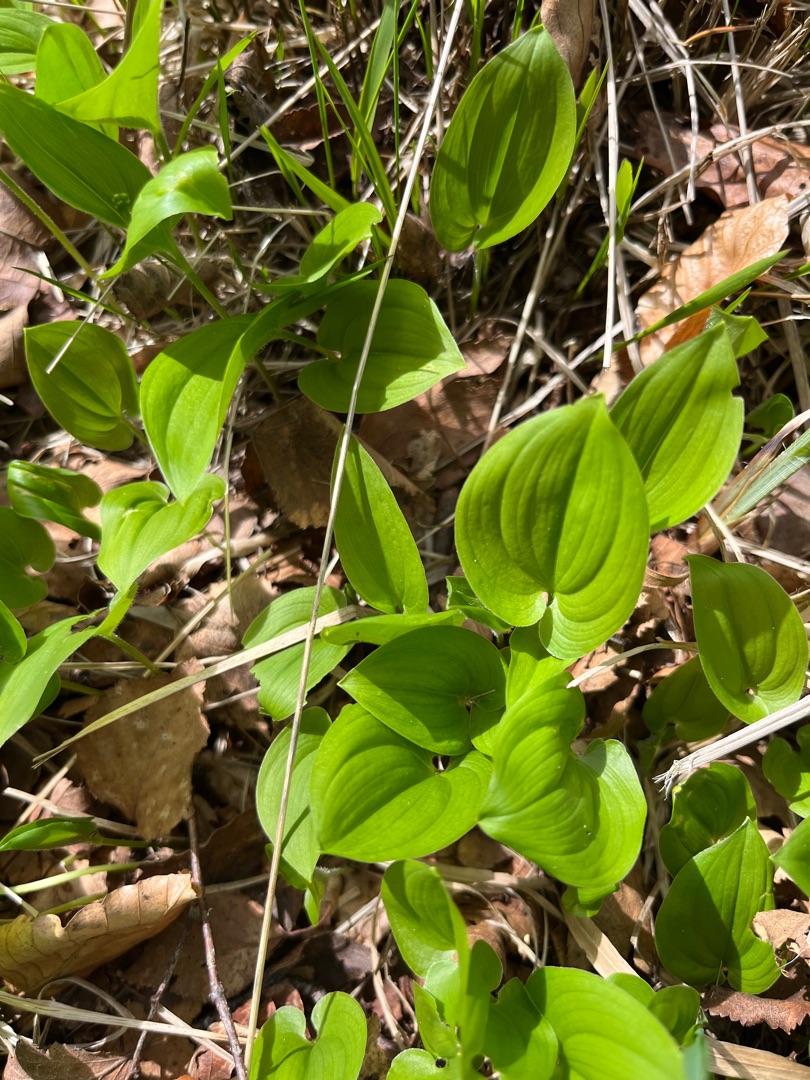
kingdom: Plantae
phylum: Tracheophyta
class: Liliopsida
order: Asparagales
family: Asparagaceae
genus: Maianthemum
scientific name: Maianthemum bifolium
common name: Majblomst
